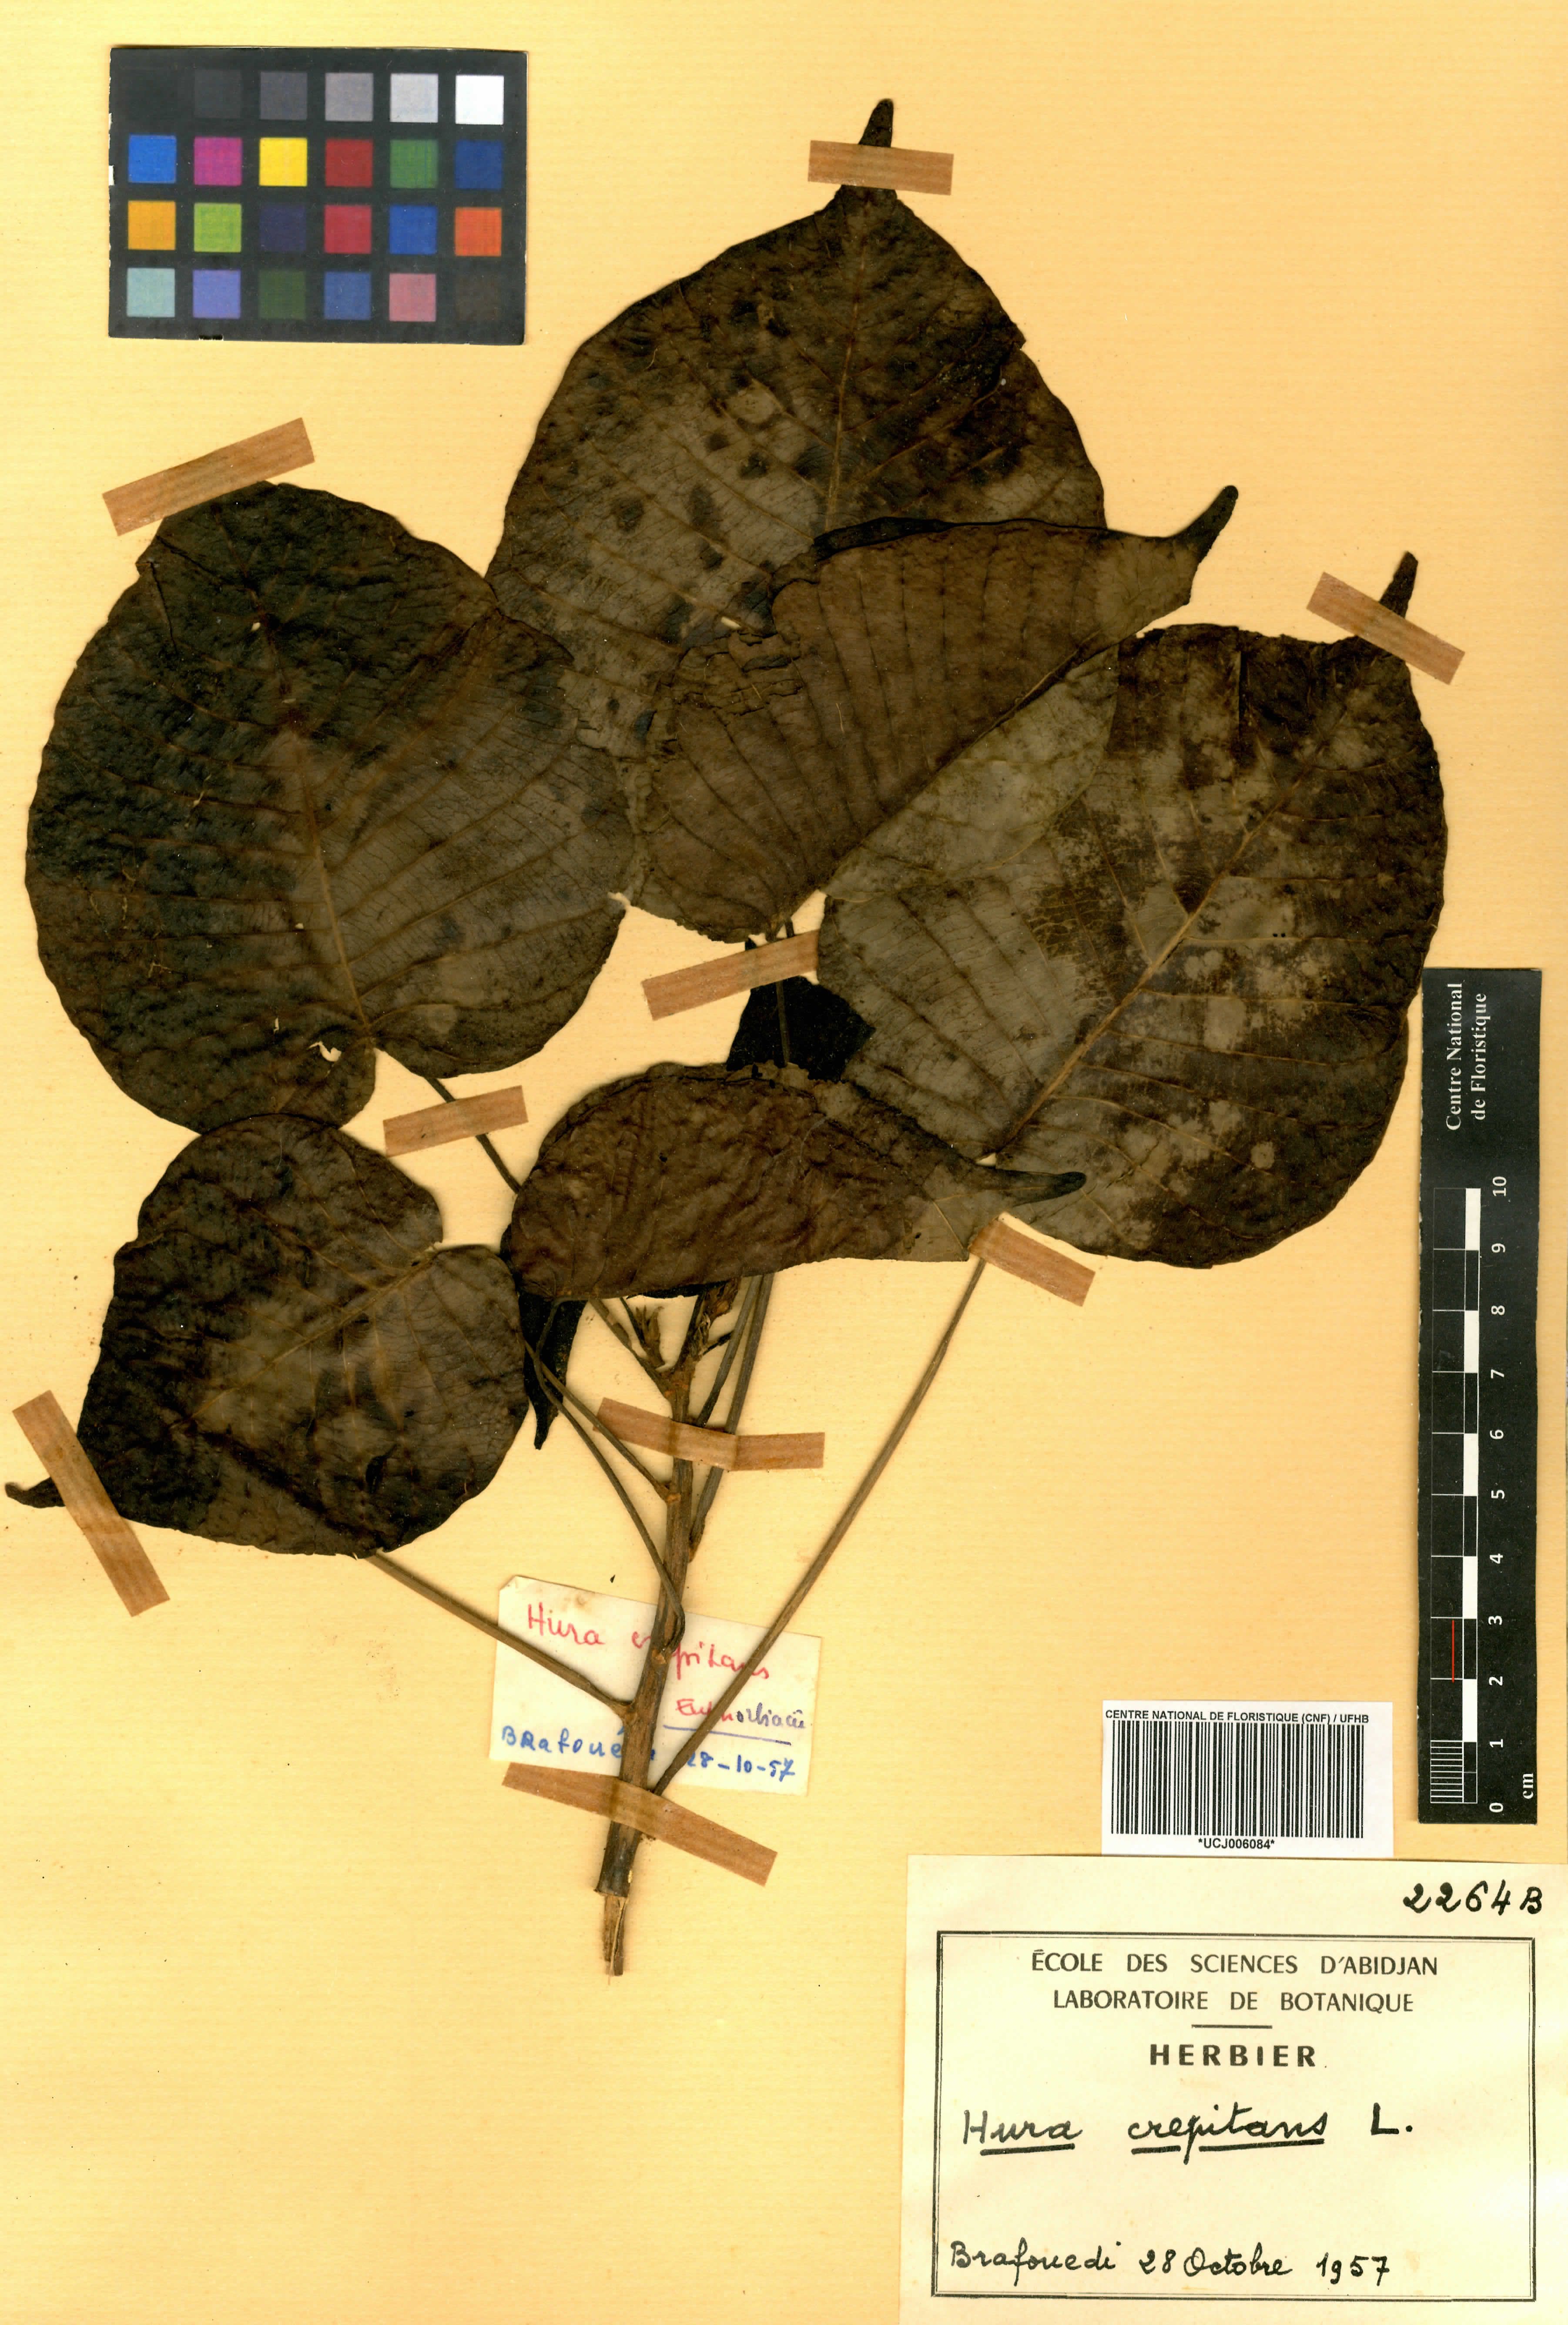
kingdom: Plantae
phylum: Tracheophyta
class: Magnoliopsida
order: Malpighiales
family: Euphorbiaceae
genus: Hura
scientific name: Hura crepitans
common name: Sandboxtree
